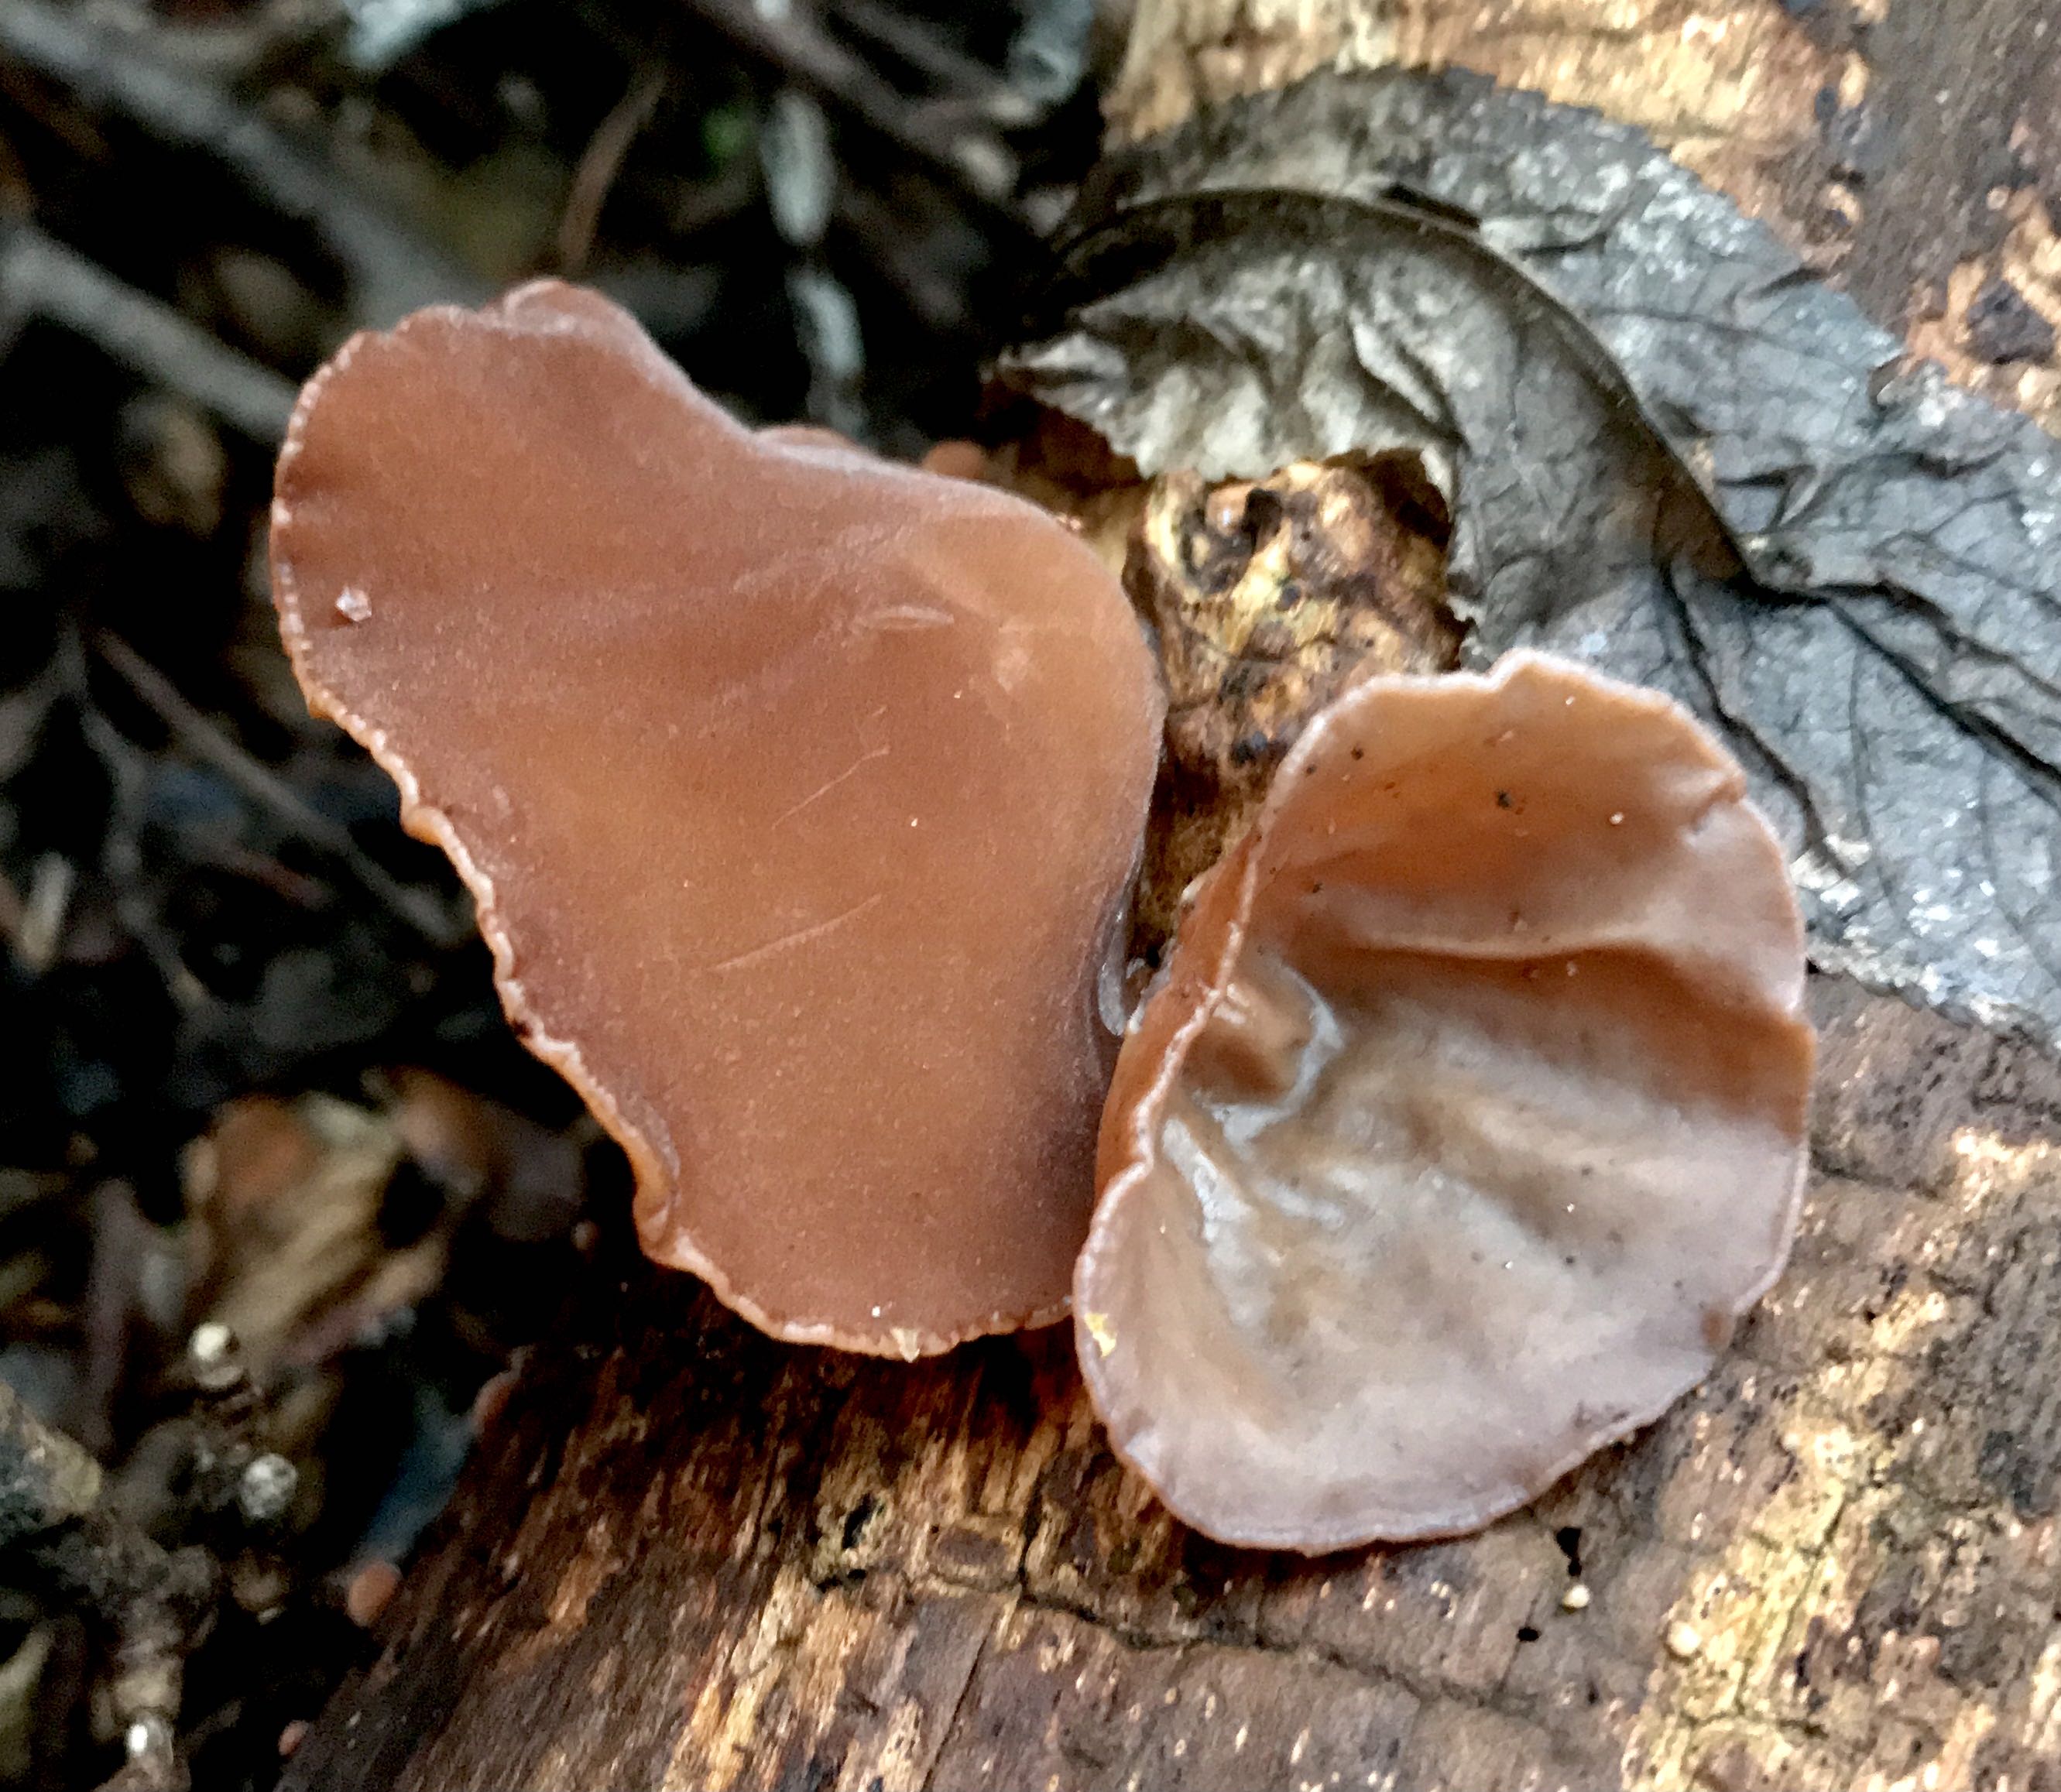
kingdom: Fungi
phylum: Basidiomycota
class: Agaricomycetes
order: Auriculariales
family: Auriculariaceae
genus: Auricularia
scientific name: Auricularia auricula-judae
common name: almindelig judasøre
